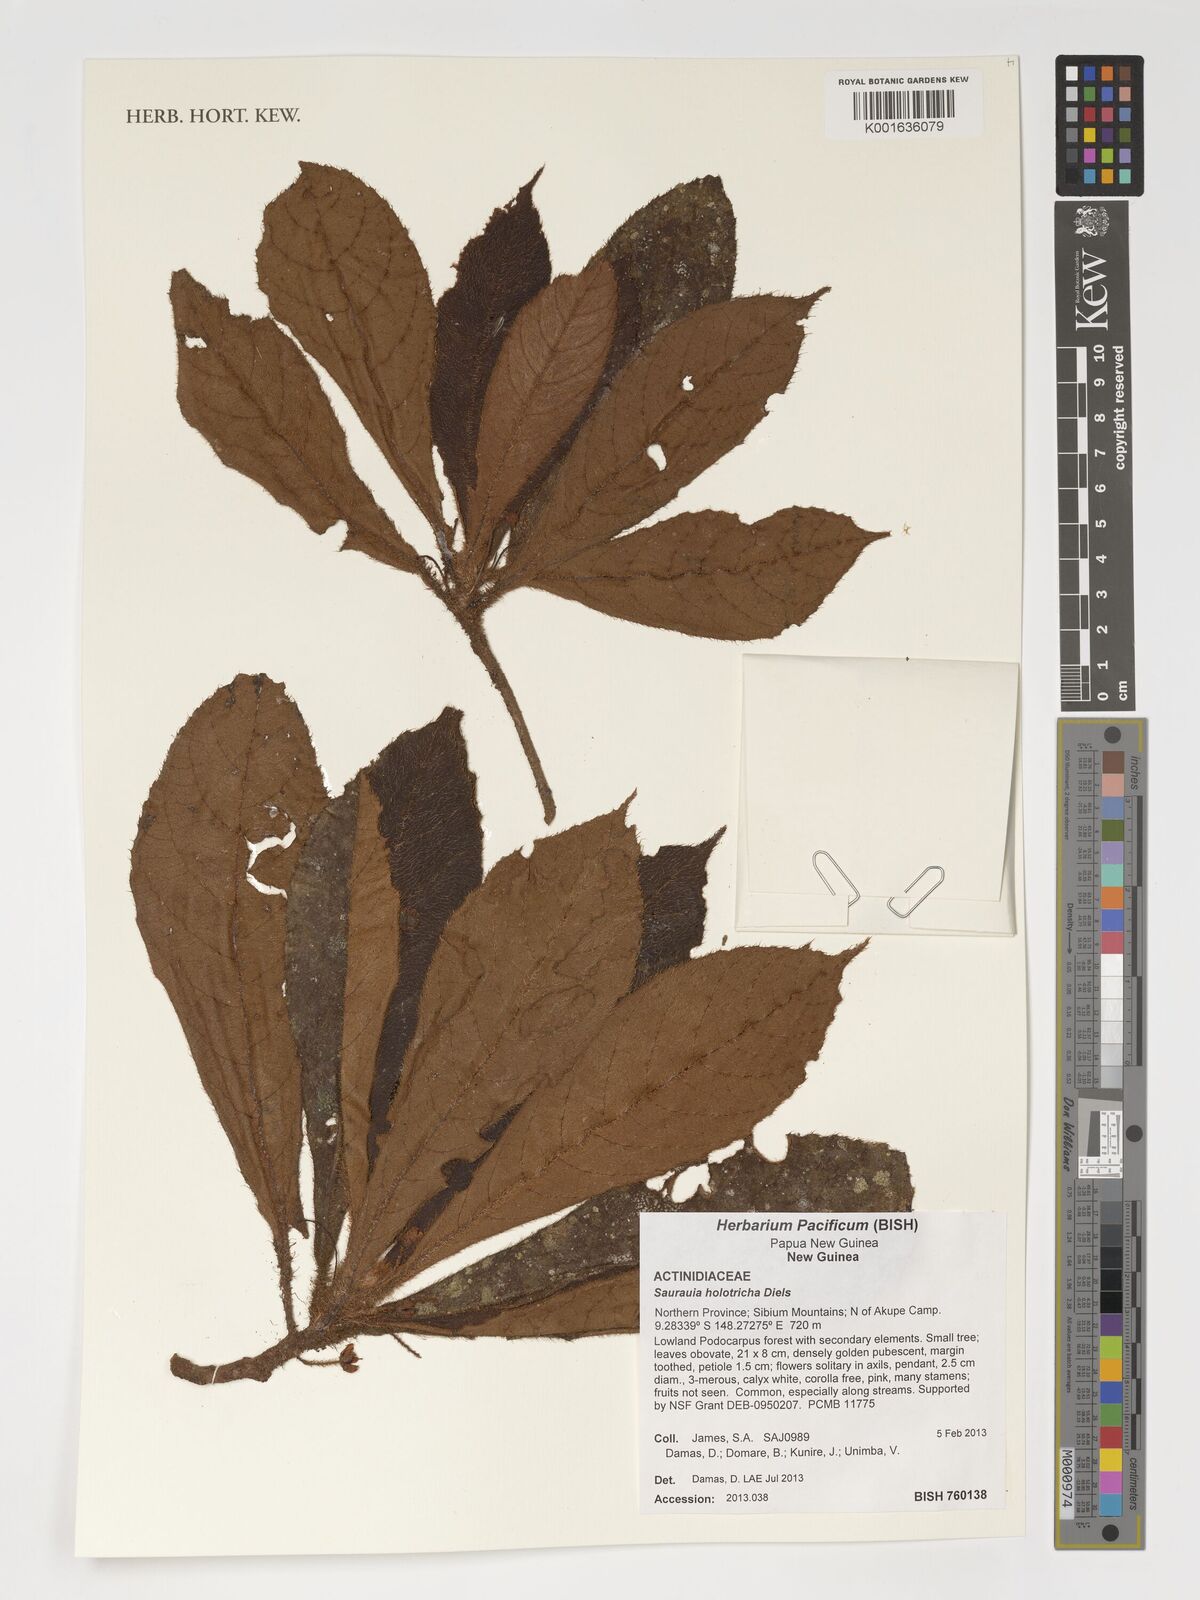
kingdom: Plantae
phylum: Tracheophyta
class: Magnoliopsida
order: Ericales
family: Actinidiaceae
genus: Saurauia
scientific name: Saurauia
